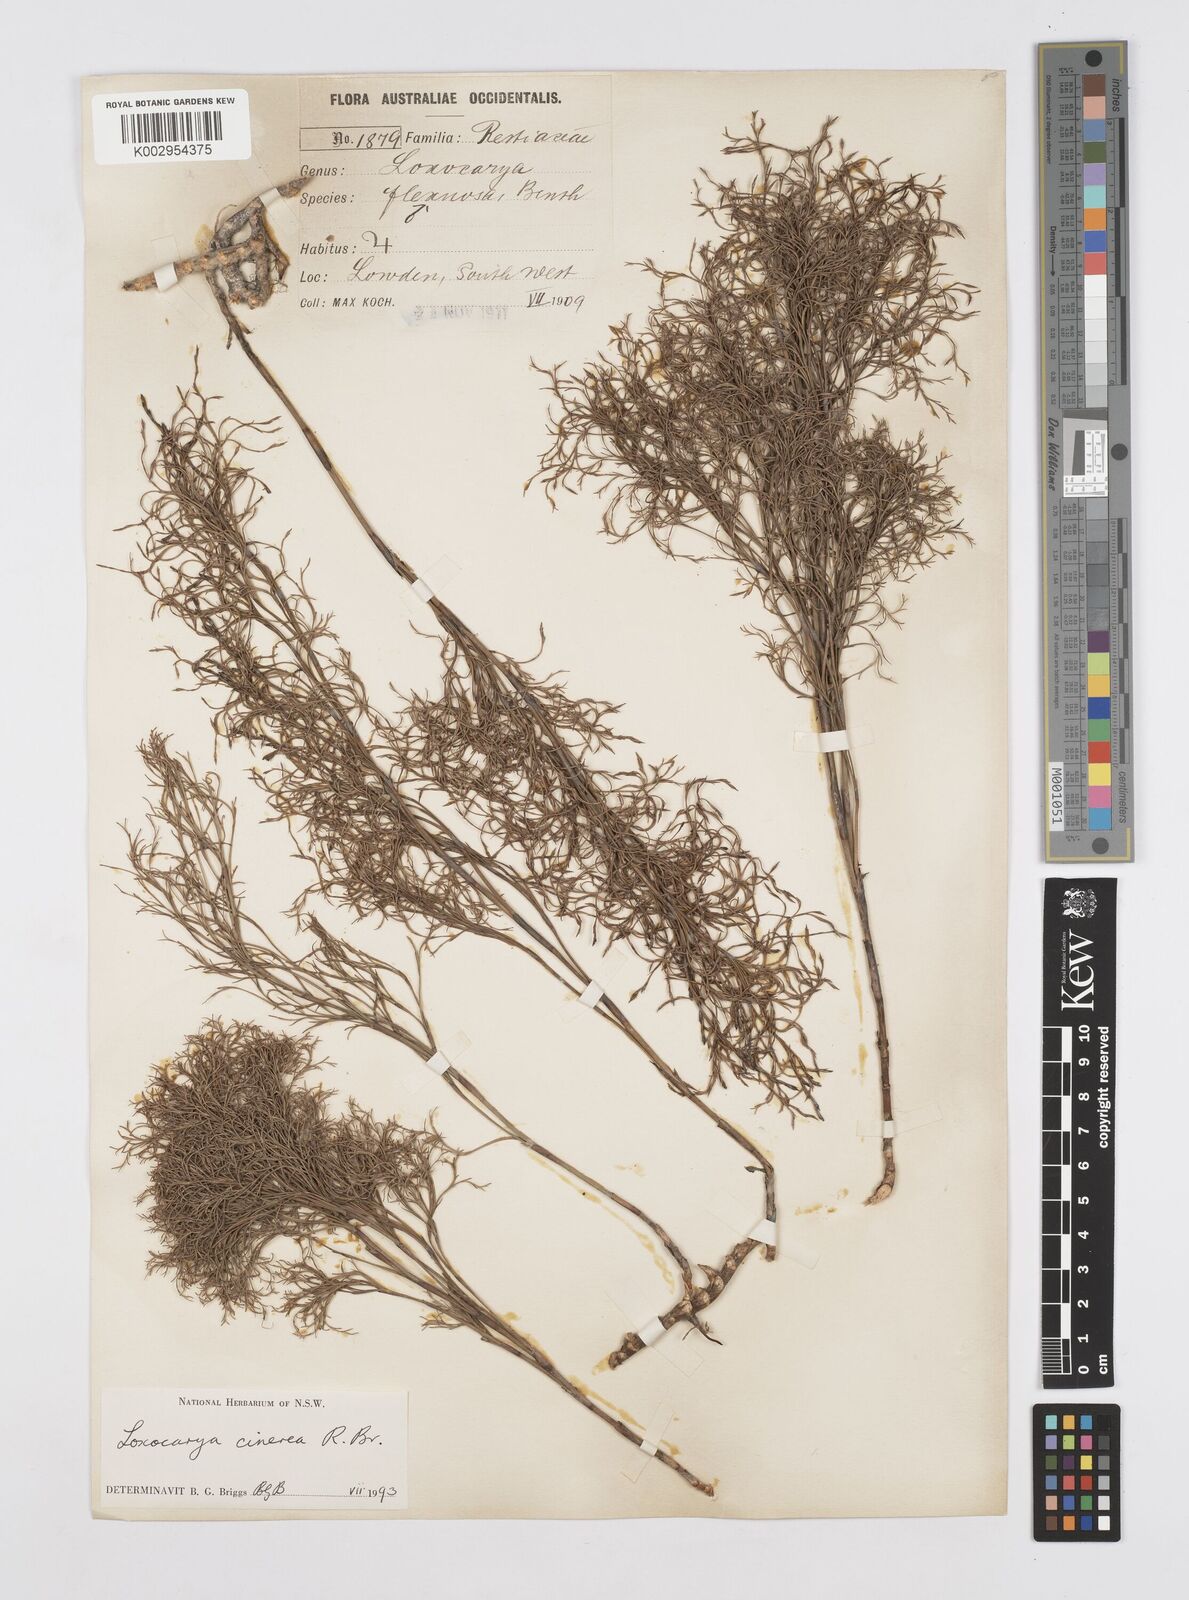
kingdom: Plantae
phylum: Tracheophyta
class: Liliopsida
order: Poales
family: Restionaceae
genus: Loxocarya
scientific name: Loxocarya cinerea
